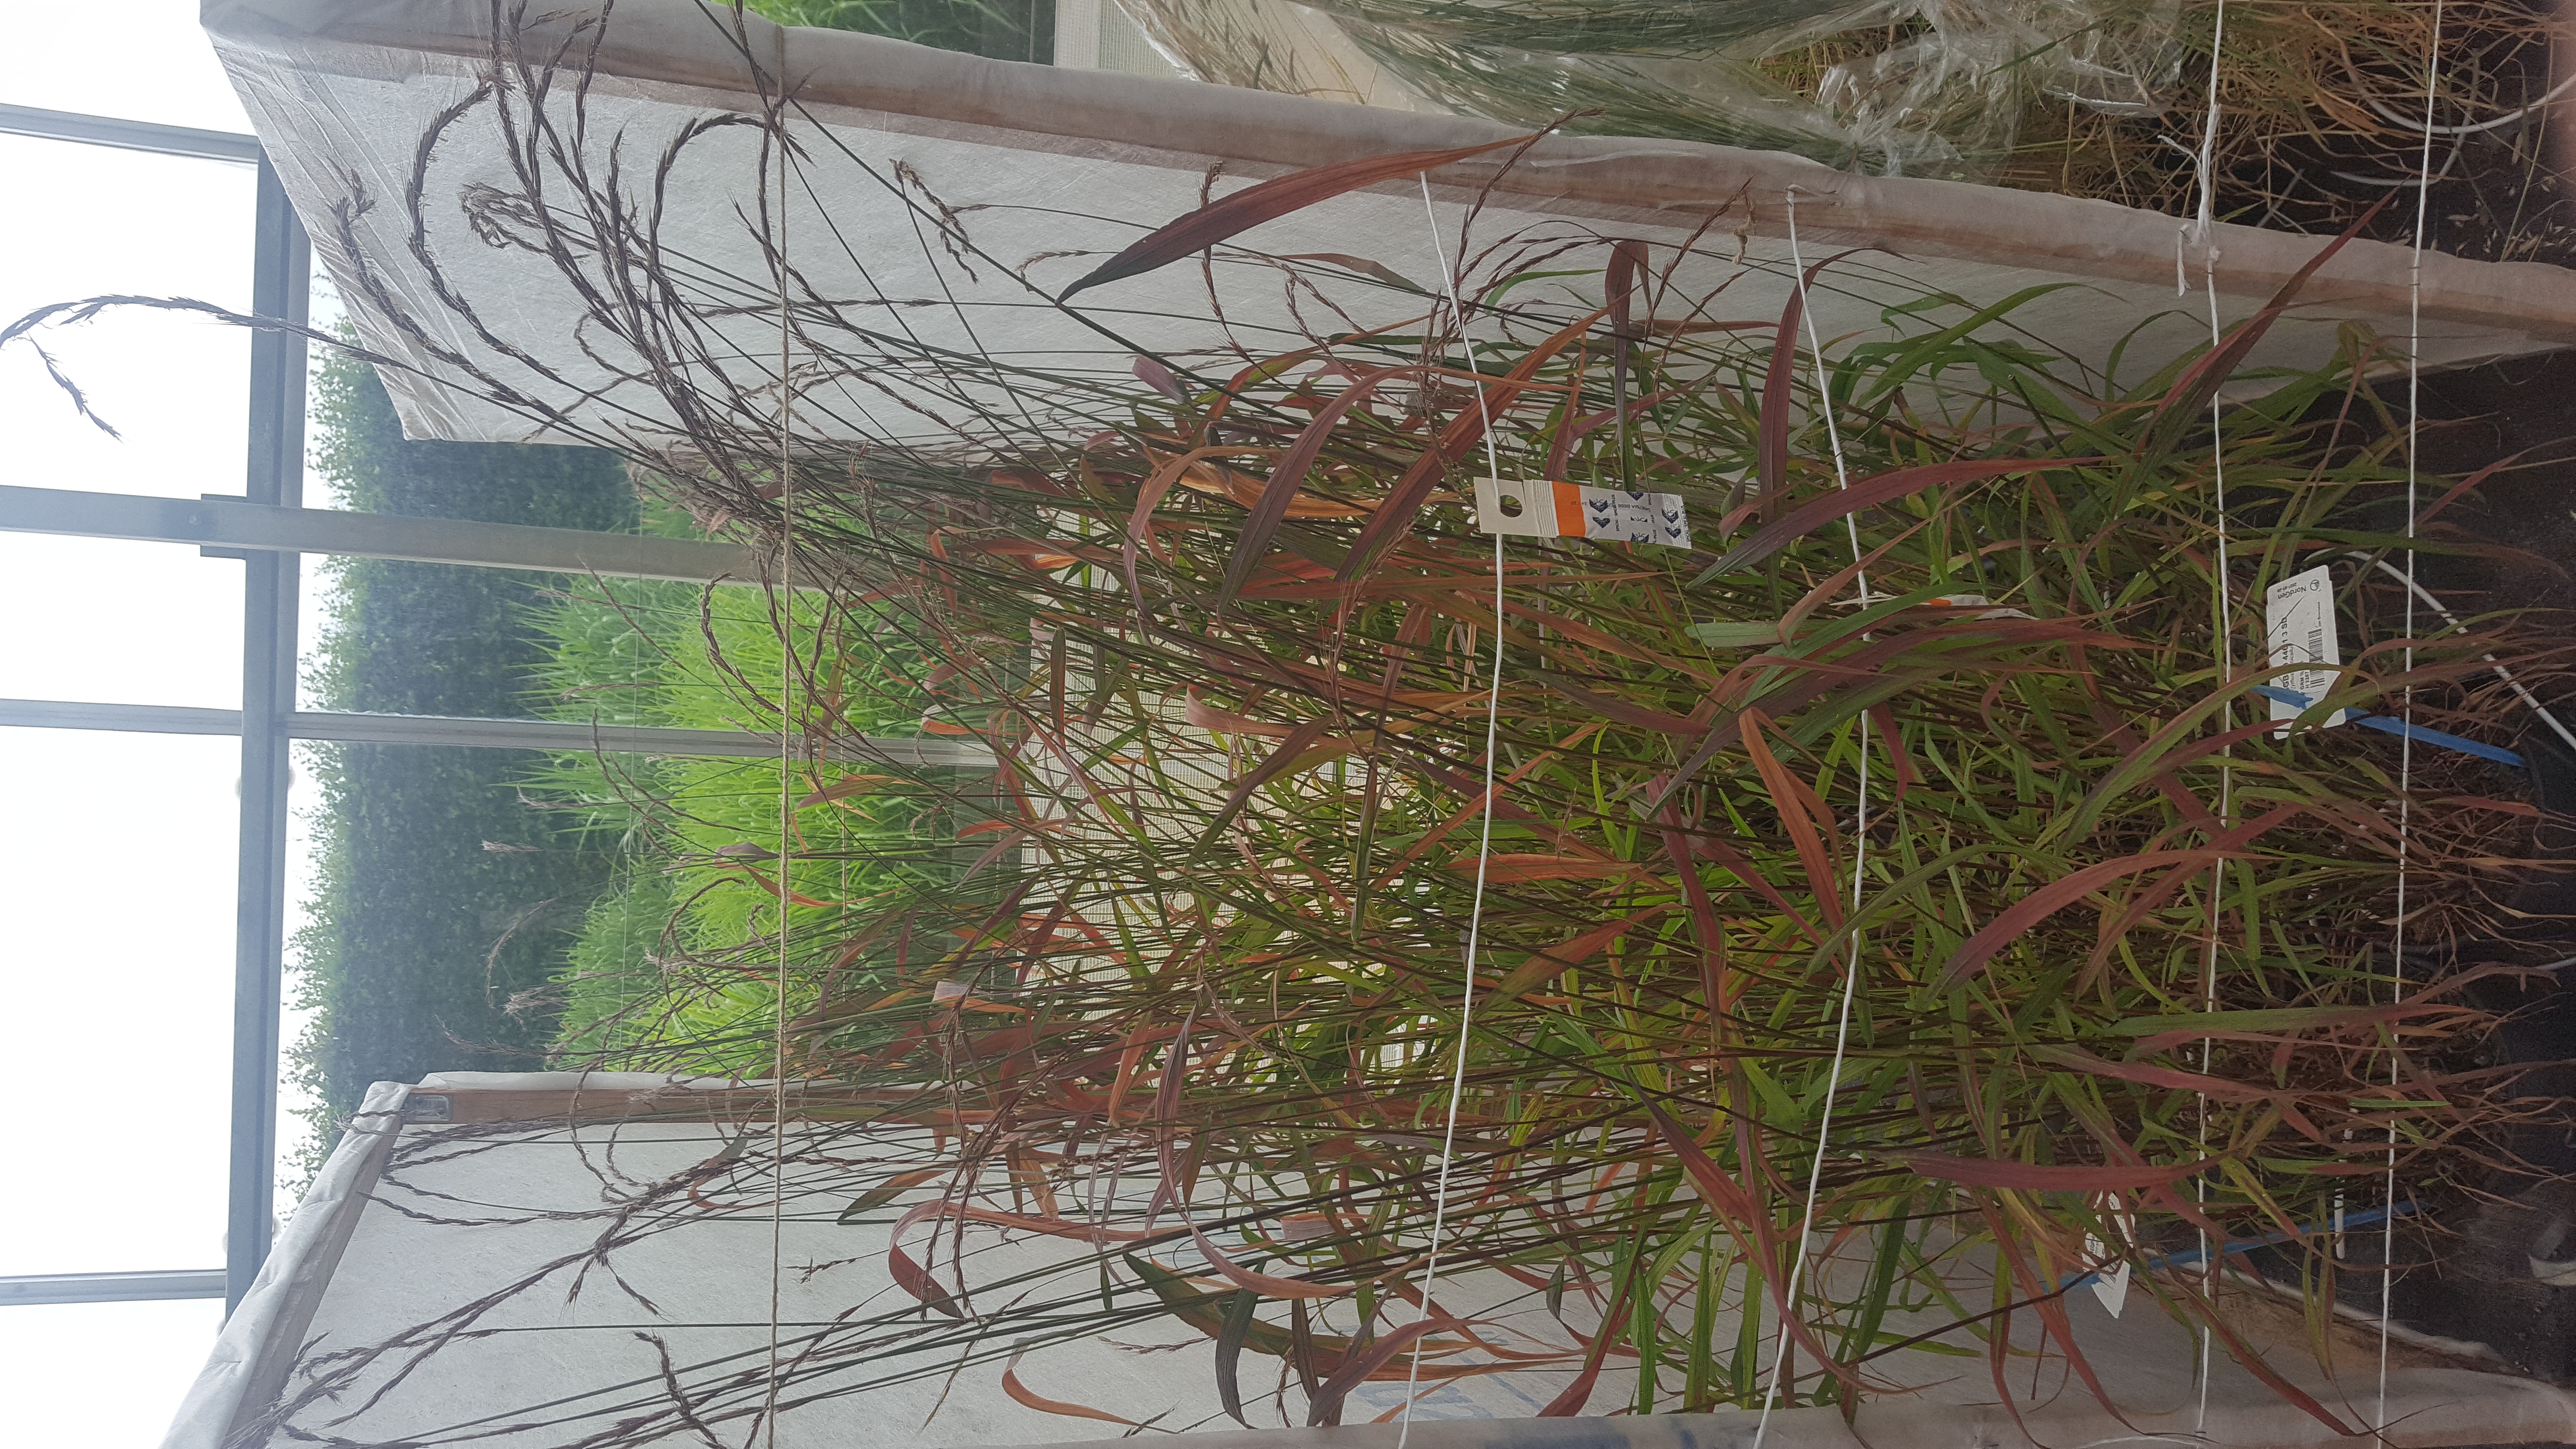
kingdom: Plantae
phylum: Tracheophyta
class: Liliopsida
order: Poales
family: Poaceae
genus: Elymus
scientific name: Elymus barbicallus
